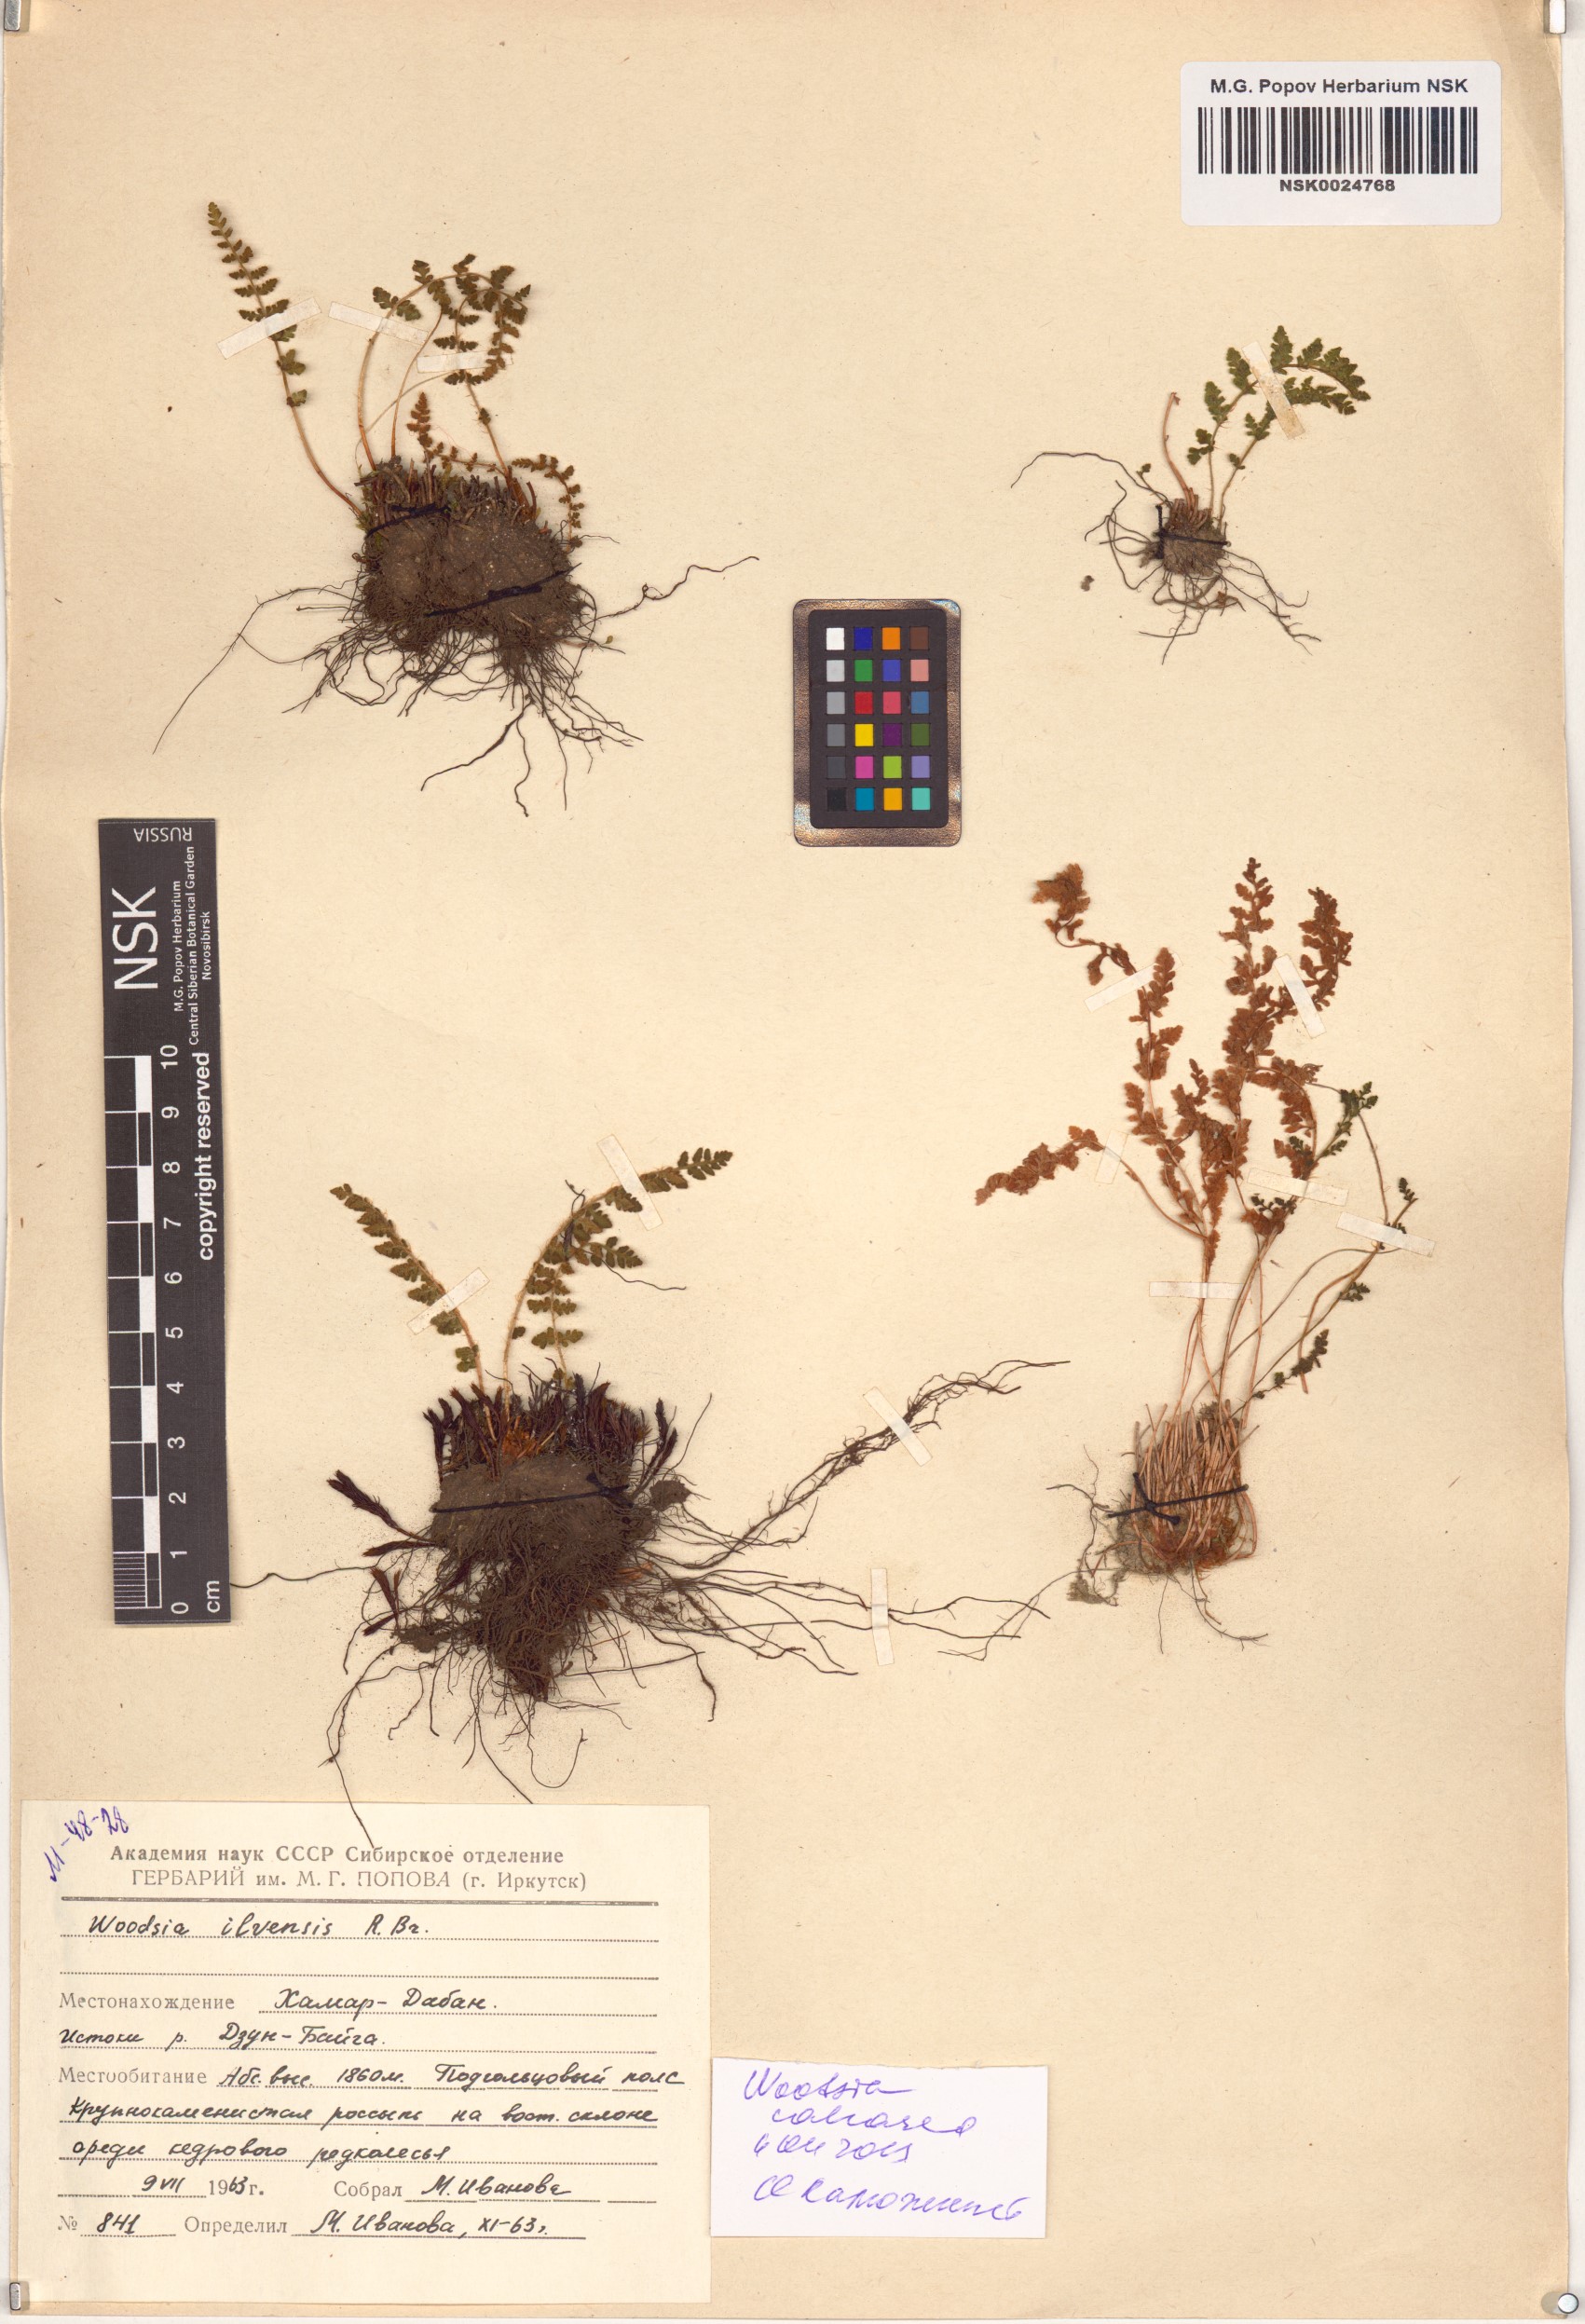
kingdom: Plantae
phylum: Tracheophyta
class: Polypodiopsida
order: Polypodiales
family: Woodsiaceae
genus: Woodsia
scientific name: Woodsia calcarea
